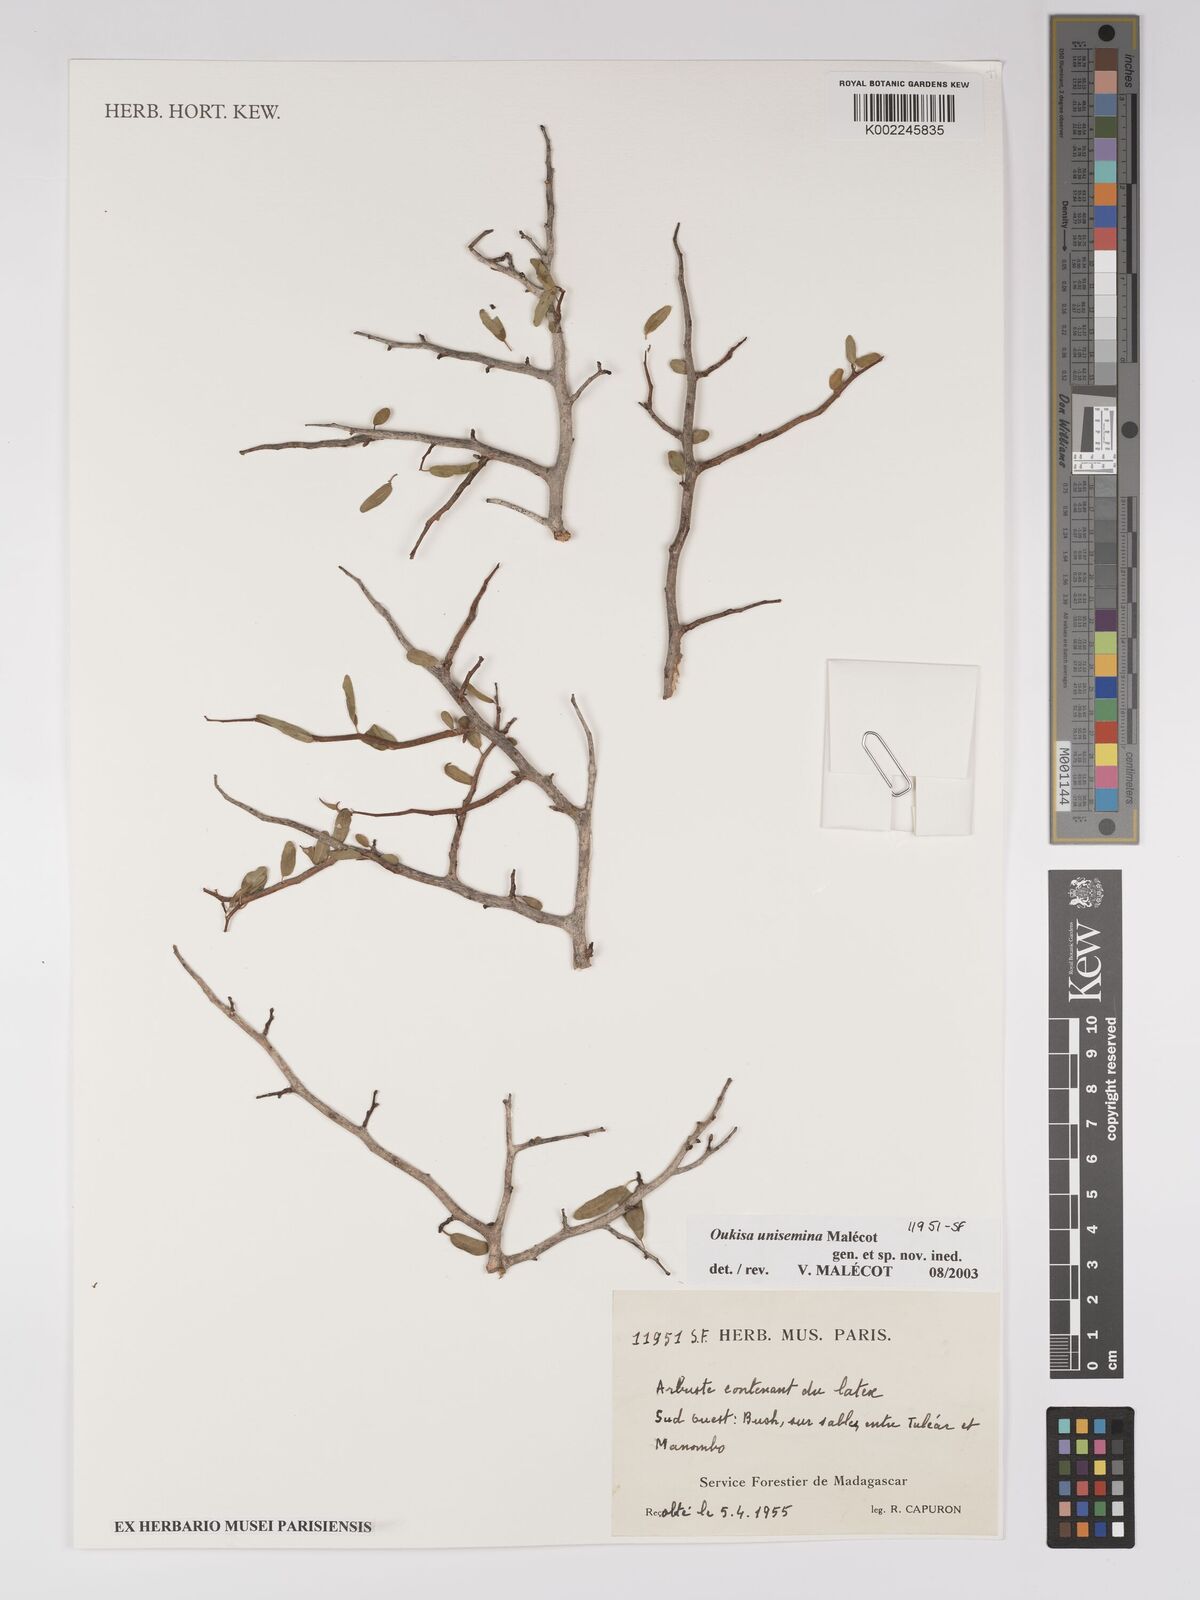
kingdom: Plantae
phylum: Tracheophyta
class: Magnoliopsida
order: Malpighiales
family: Euphorbiaceae
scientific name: Euphorbiaceae
